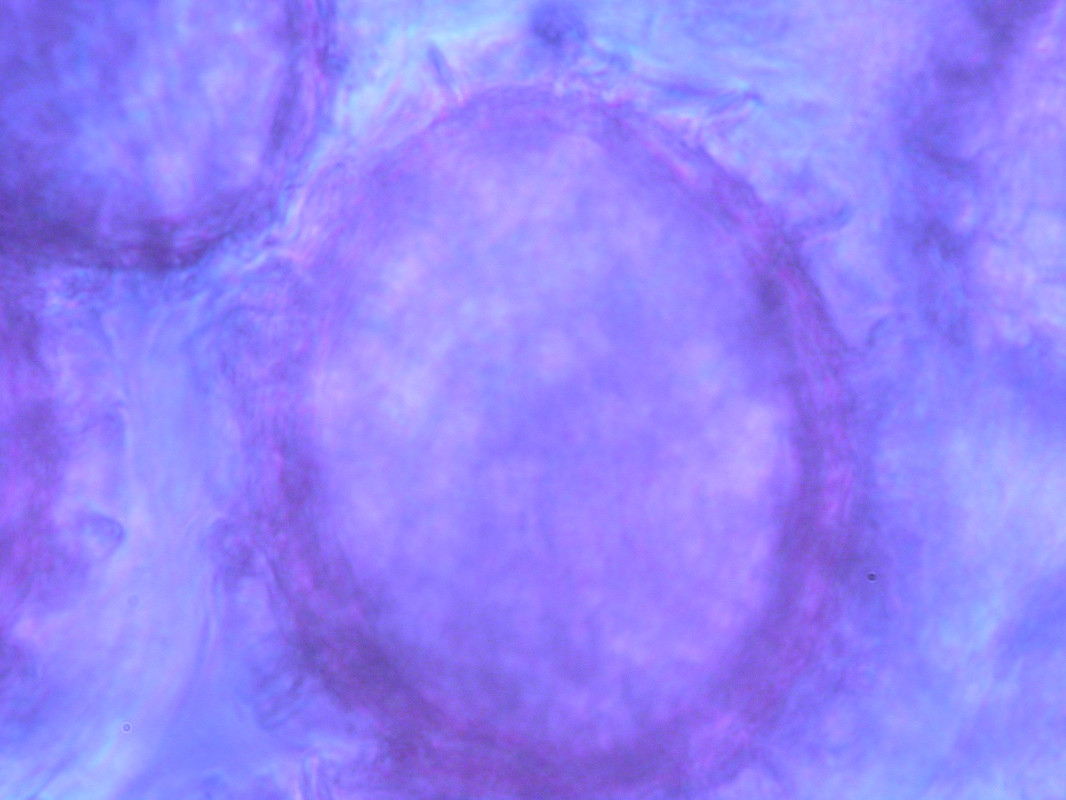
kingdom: Fungi
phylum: Ascomycota
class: Pezizomycetes
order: Pezizales
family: Tuberaceae
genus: Tuber
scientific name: Tuber dryophilum
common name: Wood truffle
